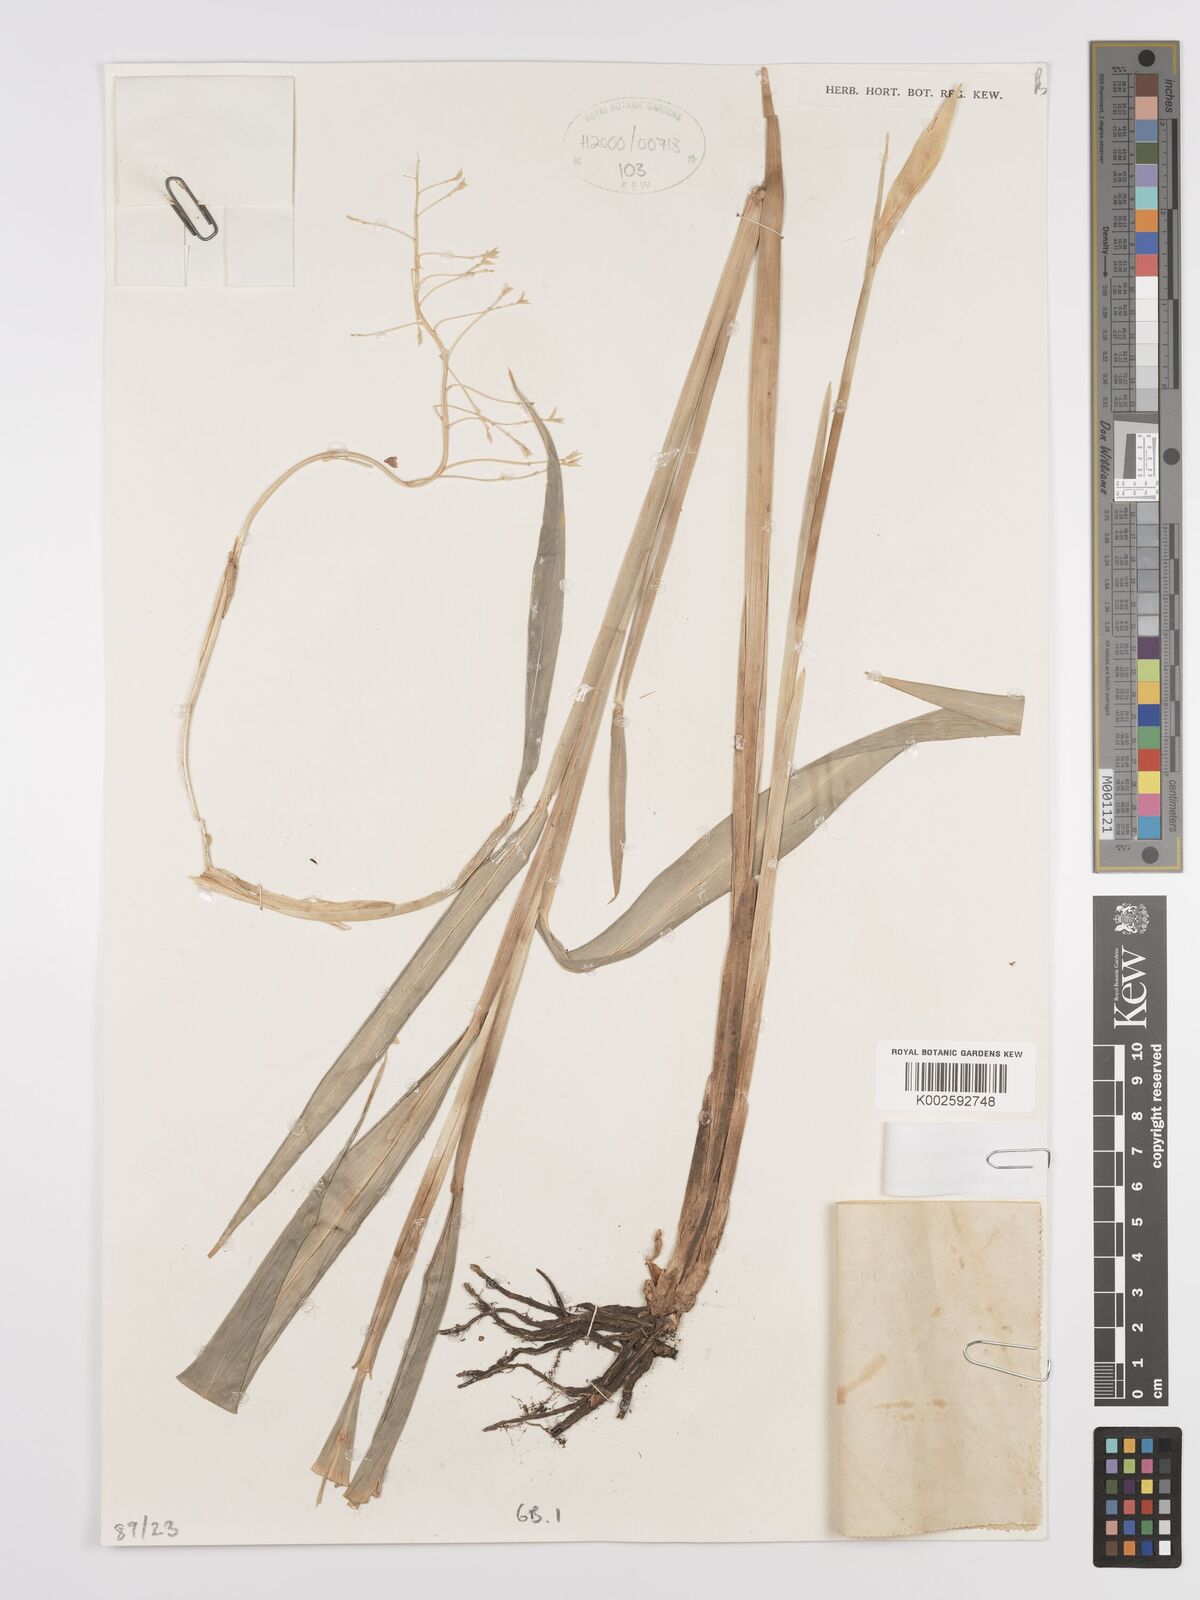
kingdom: Plantae
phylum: Tracheophyta
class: Liliopsida
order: Zingiberales
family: Zingiberaceae
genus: Globba
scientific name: Globba xantholeuca
